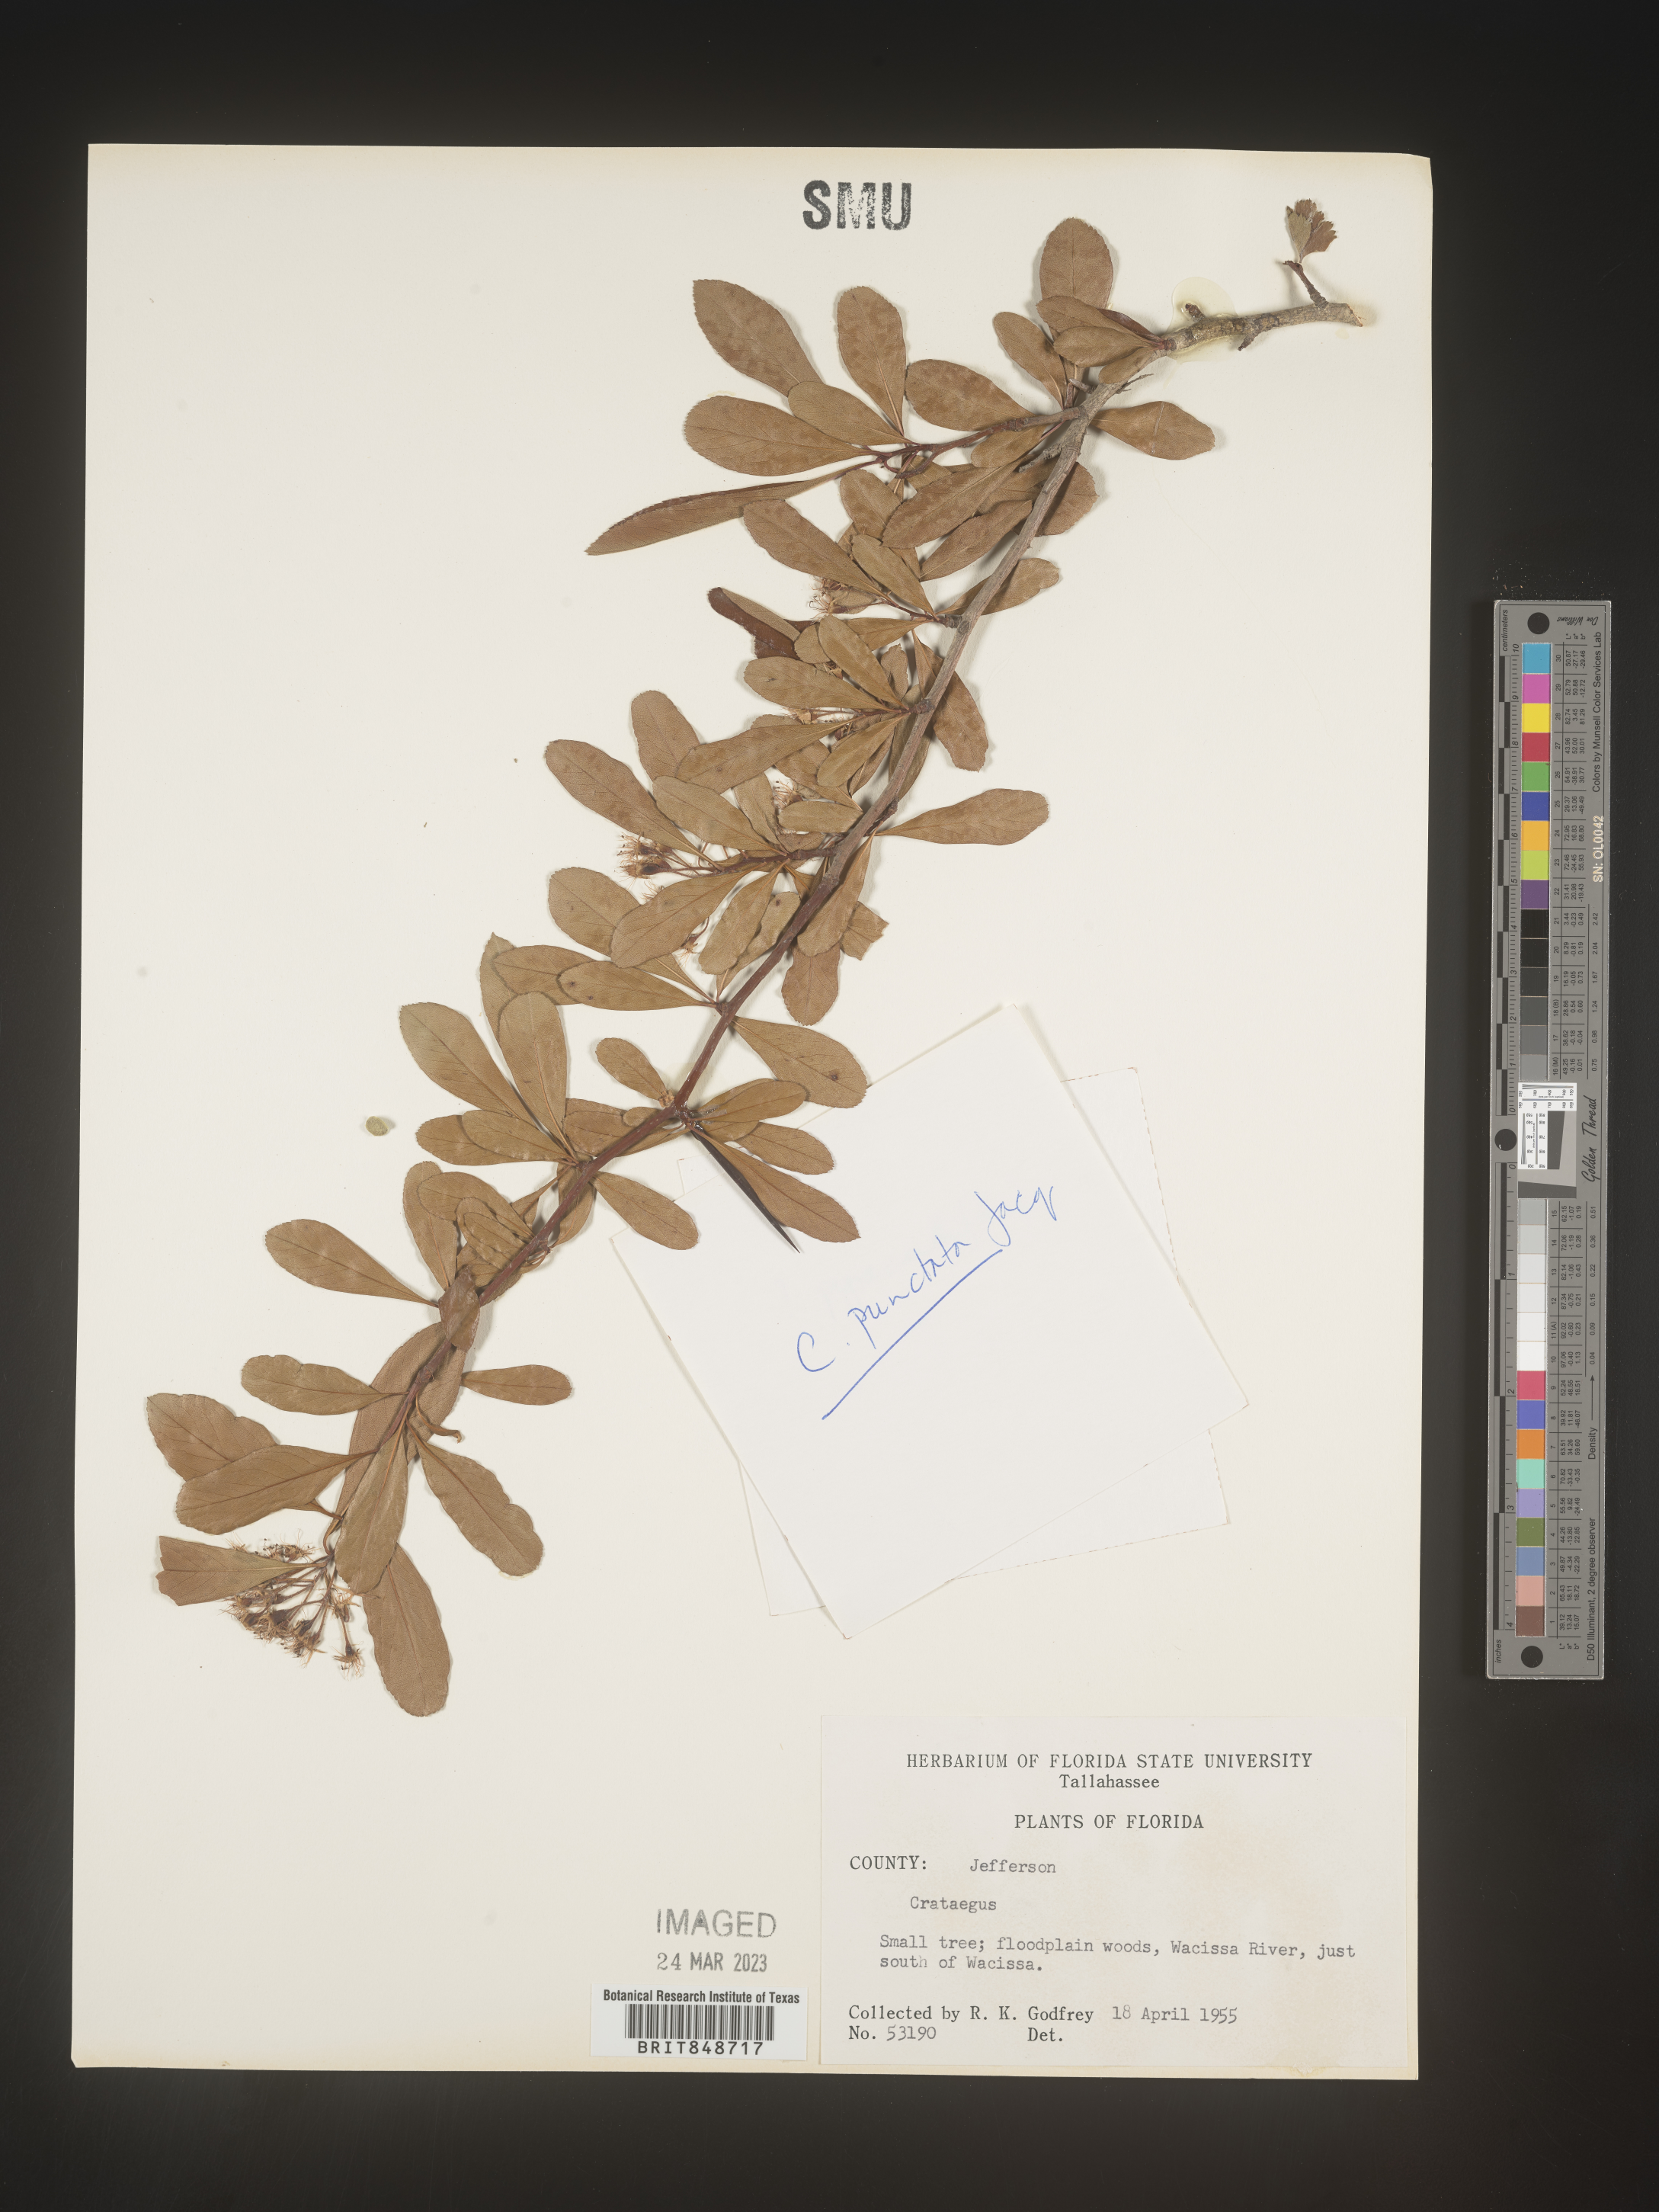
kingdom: Plantae
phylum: Tracheophyta
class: Magnoliopsida
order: Rosales
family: Rosaceae
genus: Crataegus
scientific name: Crataegus
